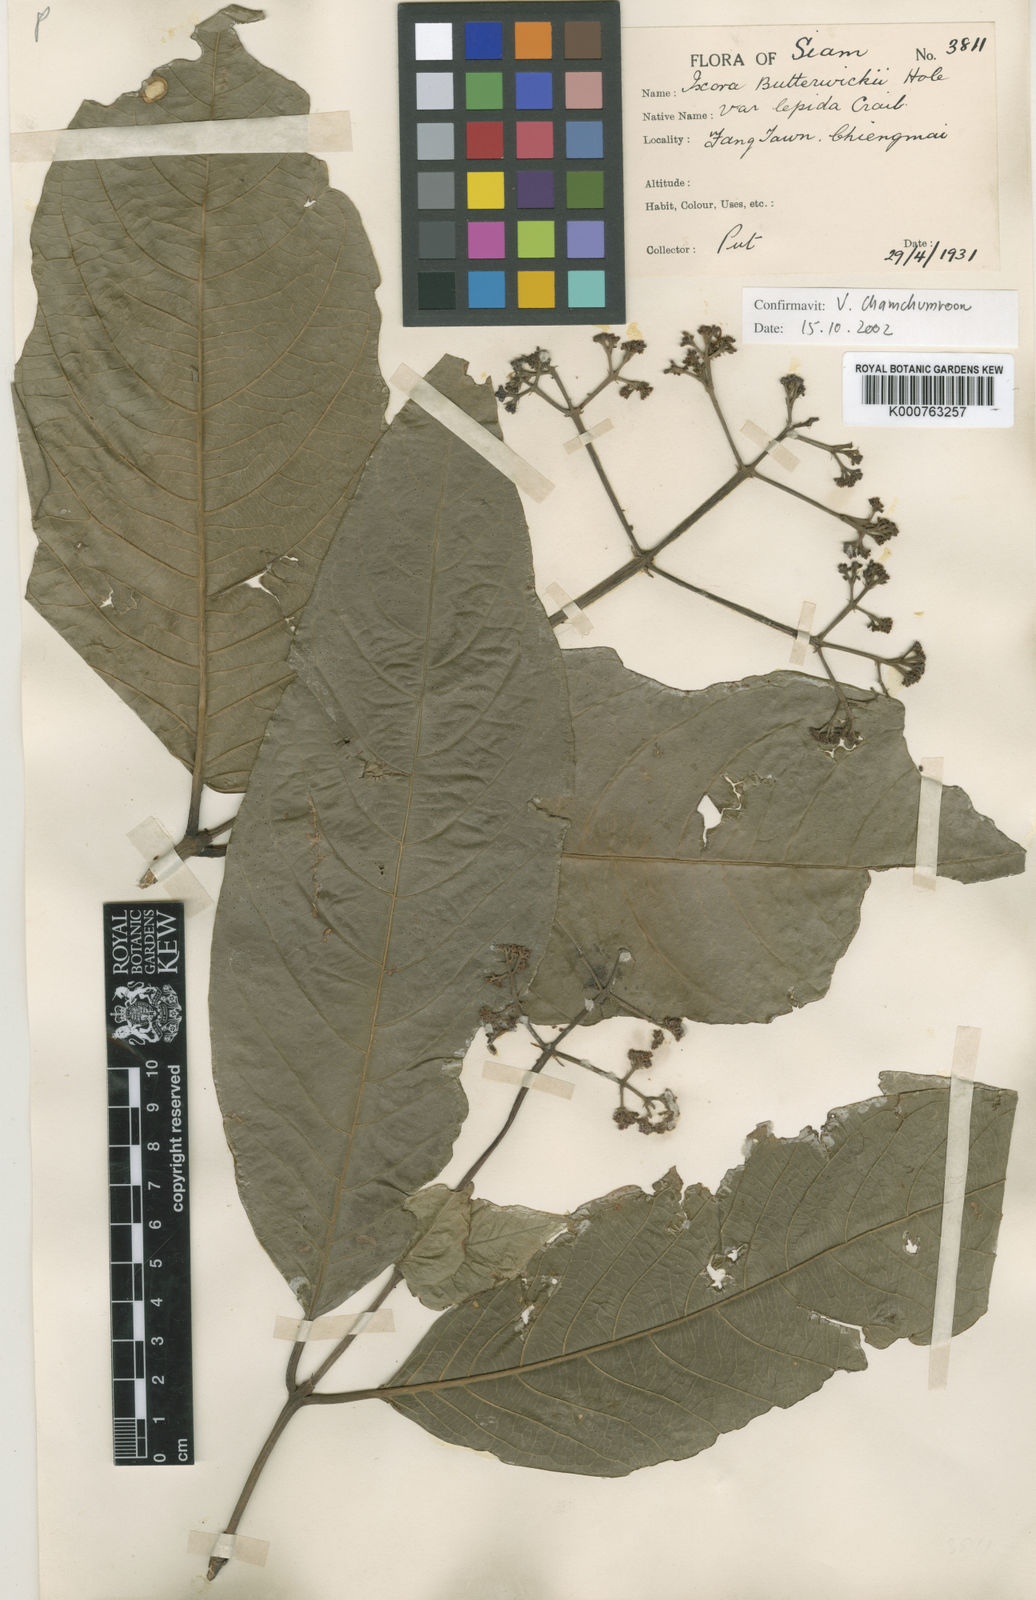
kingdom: Plantae
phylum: Tracheophyta
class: Magnoliopsida
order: Gentianales
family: Rubiaceae
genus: Ixora
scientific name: Ixora butterwickii
